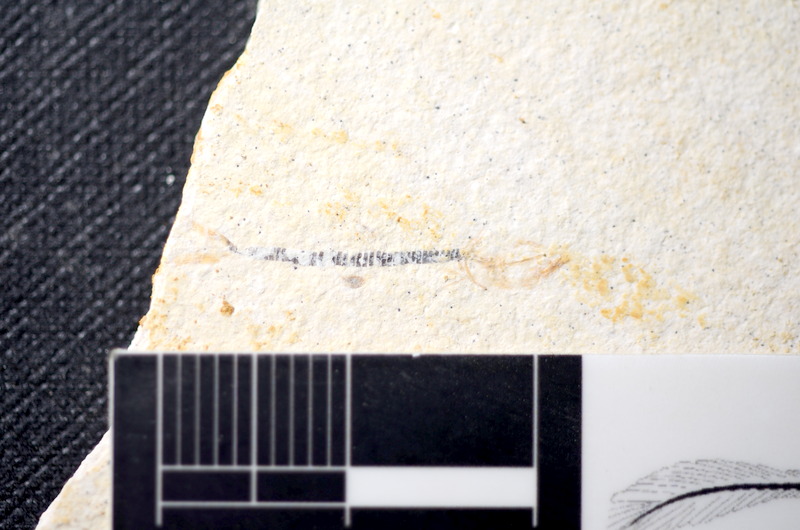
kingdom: Animalia
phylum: Chordata
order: Salmoniformes
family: Orthogonikleithridae
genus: Orthogonikleithrus
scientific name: Orthogonikleithrus hoelli
